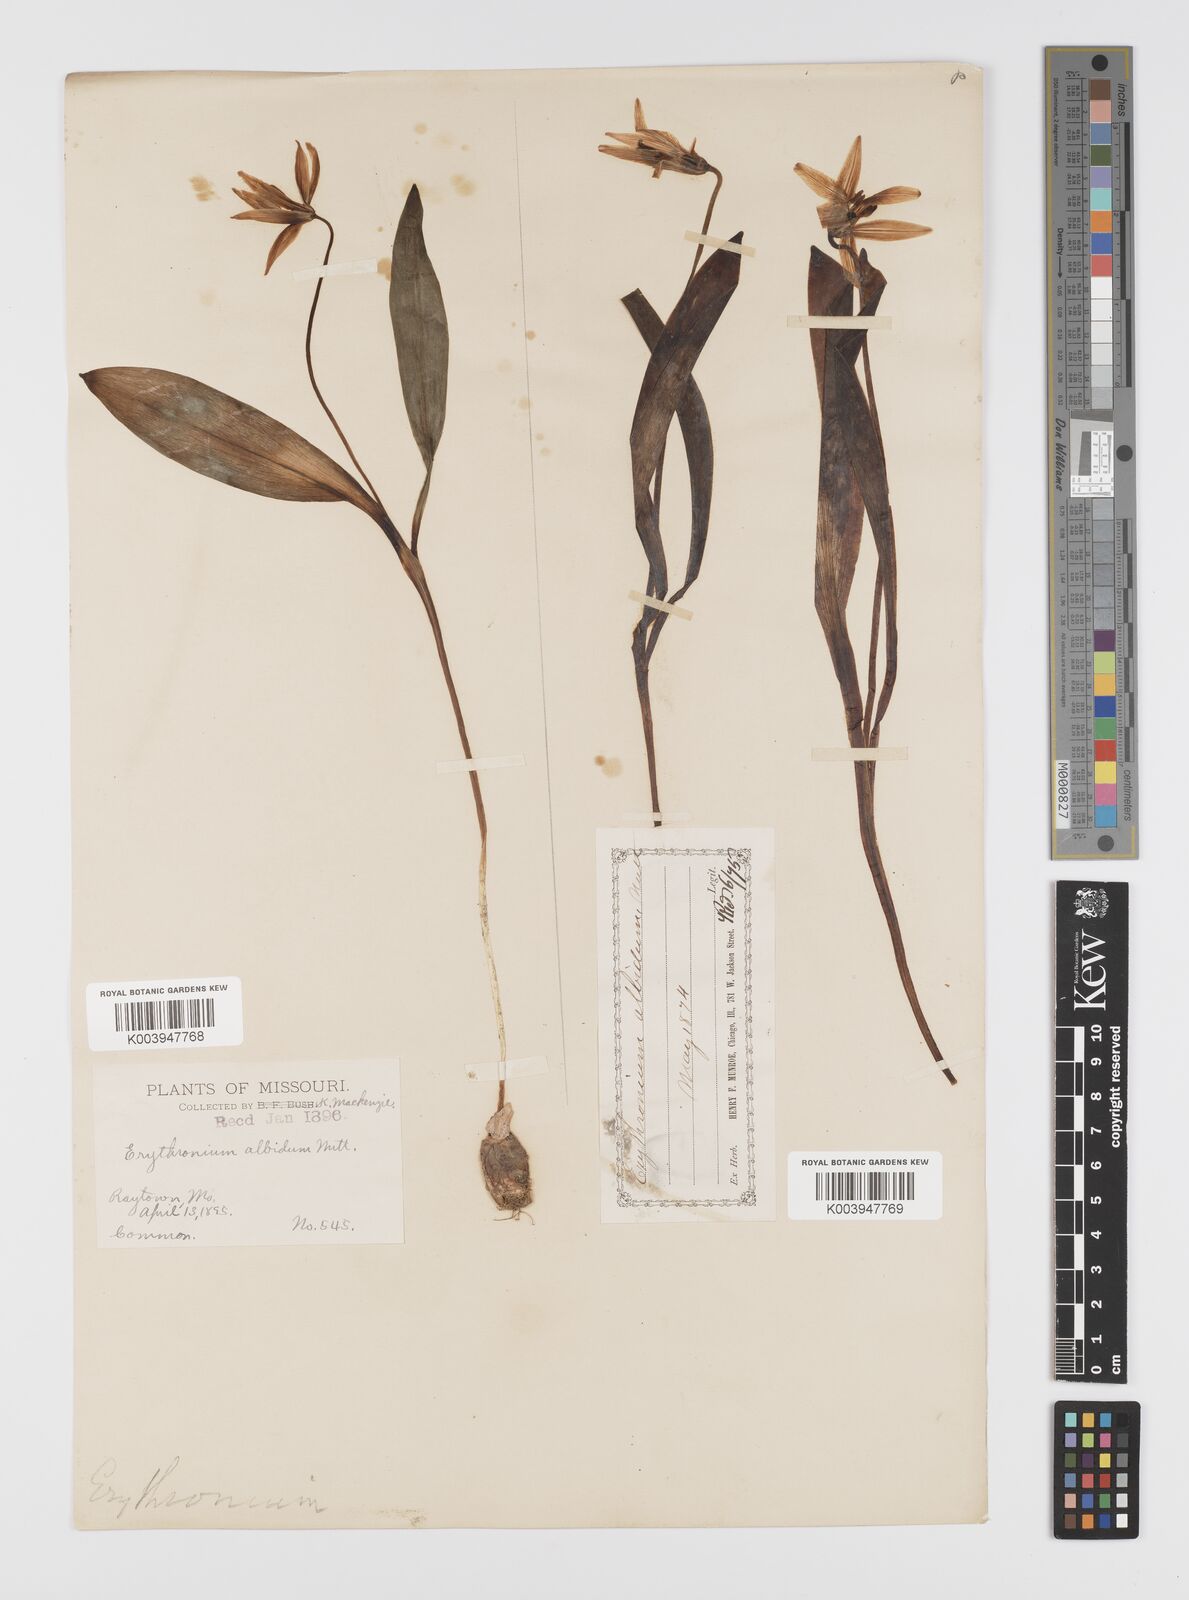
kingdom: Plantae
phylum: Tracheophyta
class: Liliopsida
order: Liliales
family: Liliaceae
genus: Erythronium
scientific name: Erythronium albidum
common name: White trout-lily
